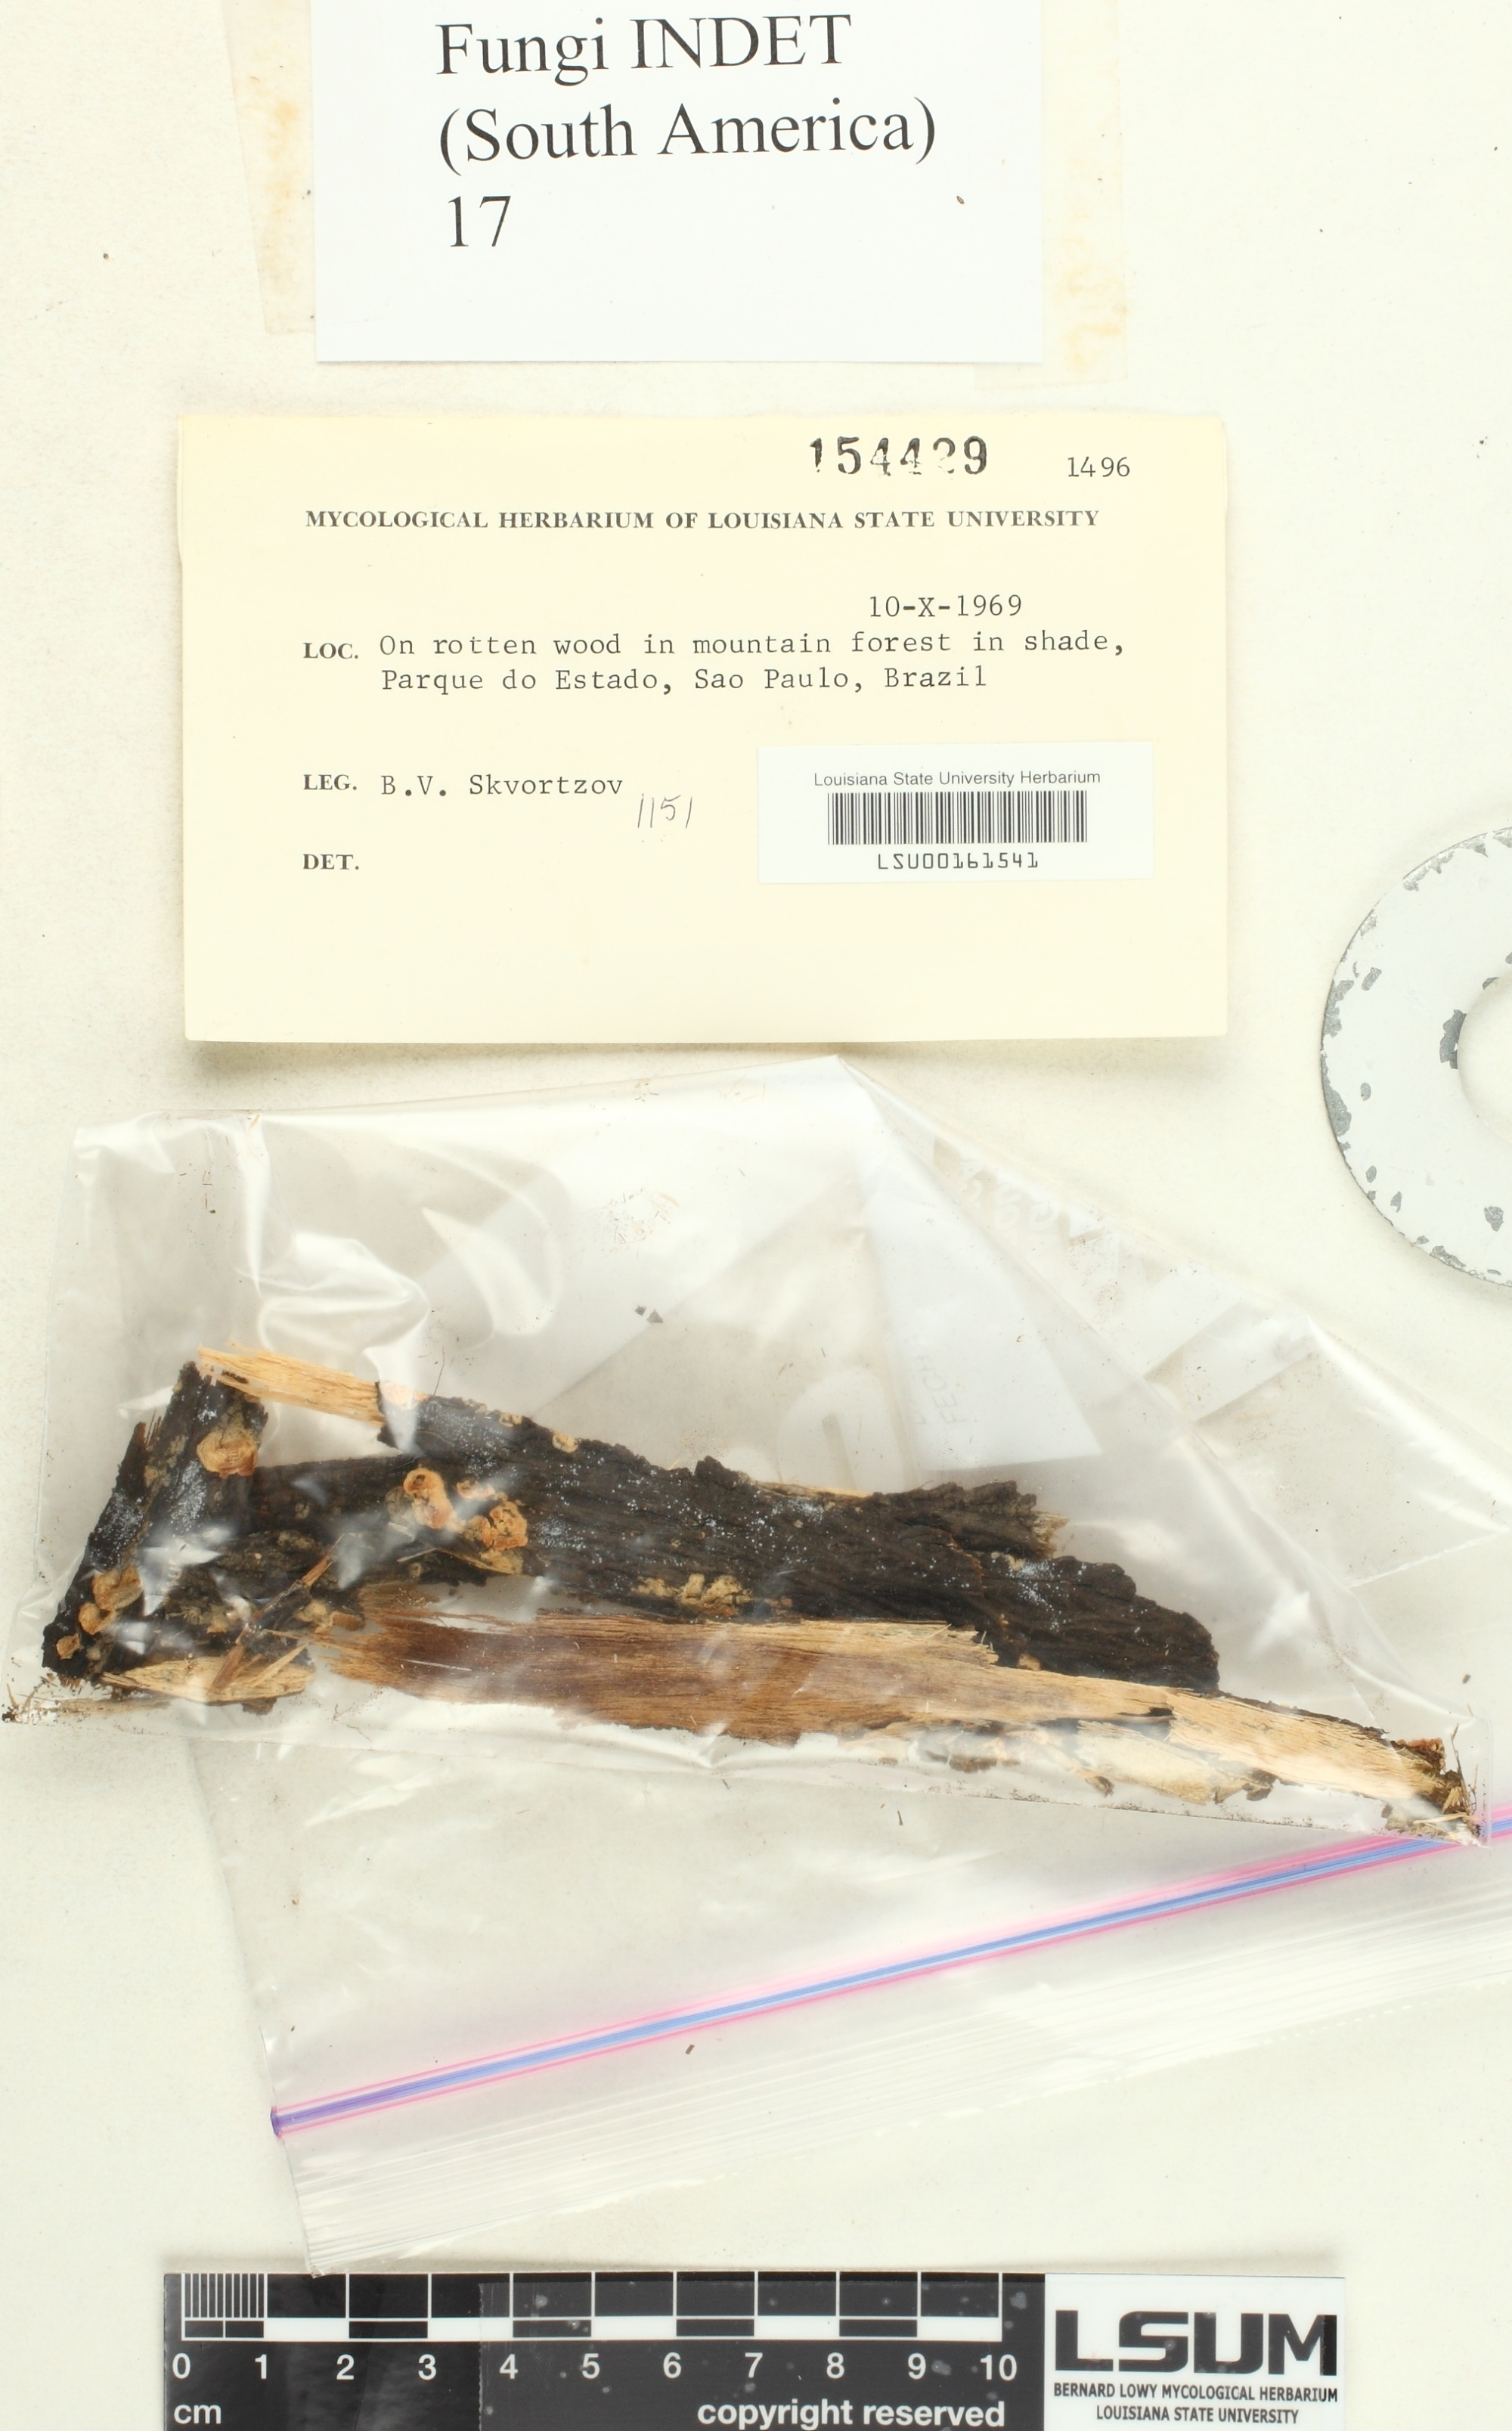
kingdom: Fungi
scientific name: Fungi
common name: Fungi
